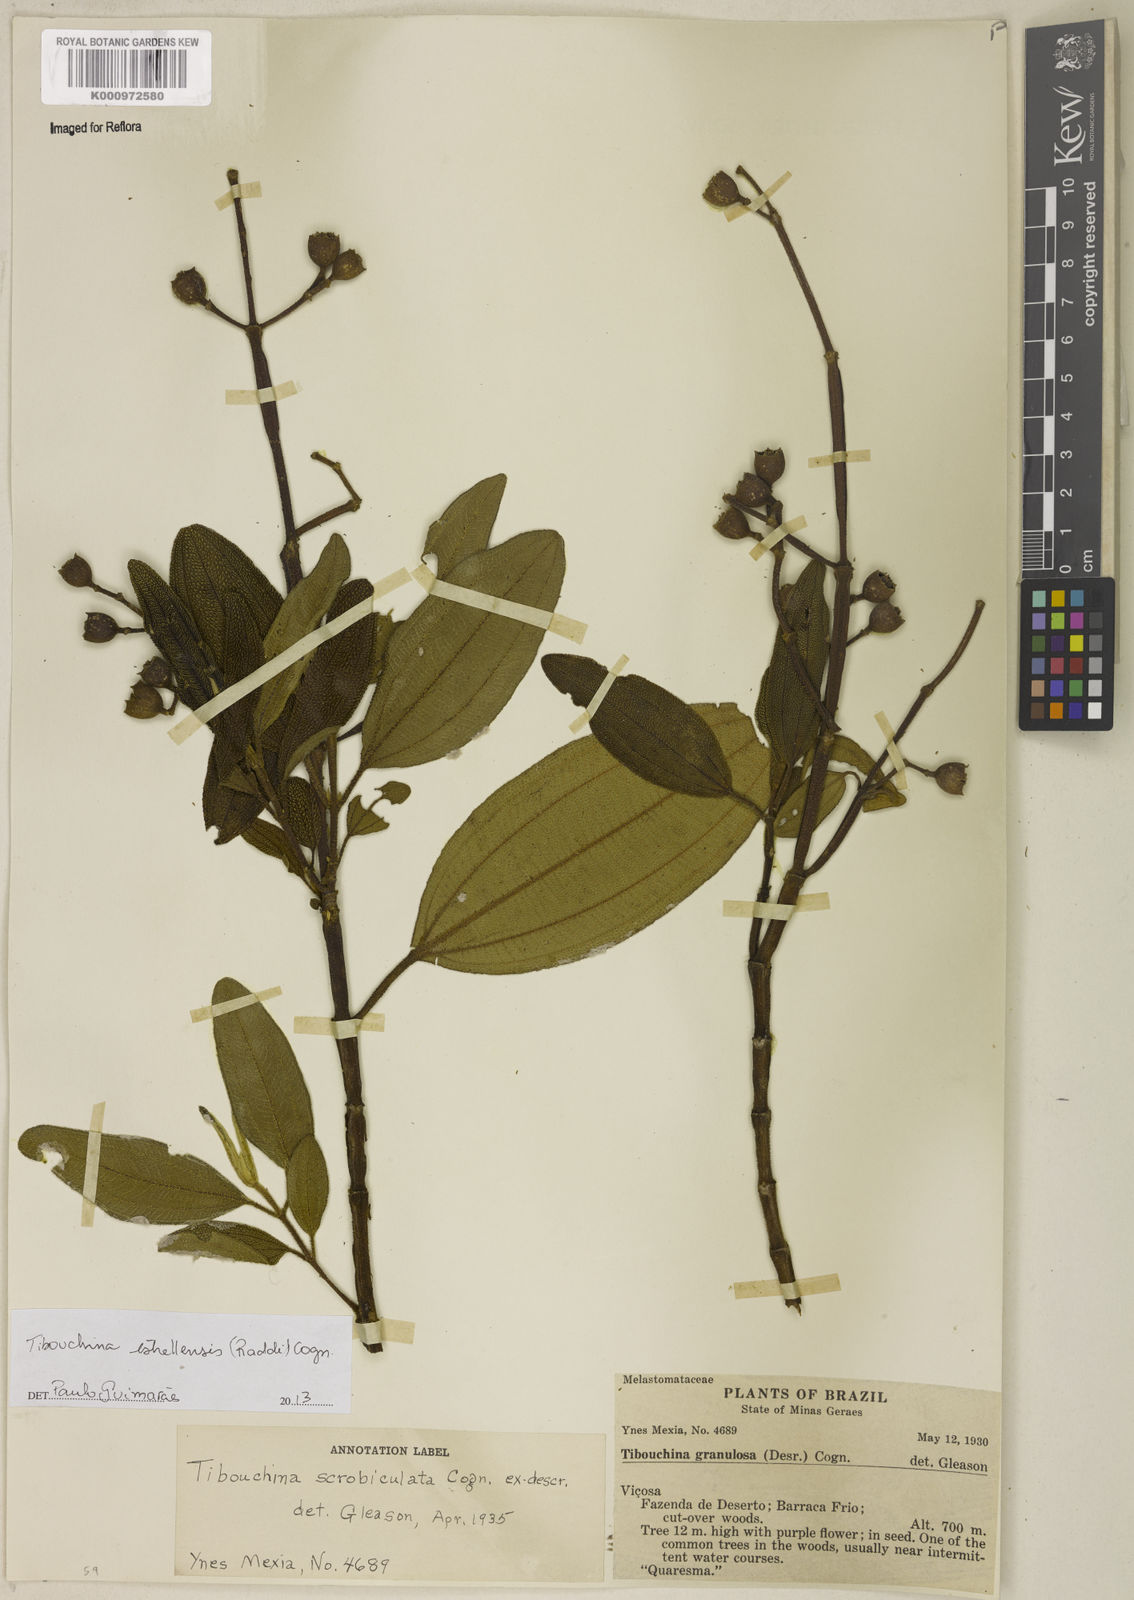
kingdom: Plantae
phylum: Tracheophyta
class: Magnoliopsida
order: Myrtales
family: Melastomataceae
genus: Pleroma
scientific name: Pleroma estrellense
